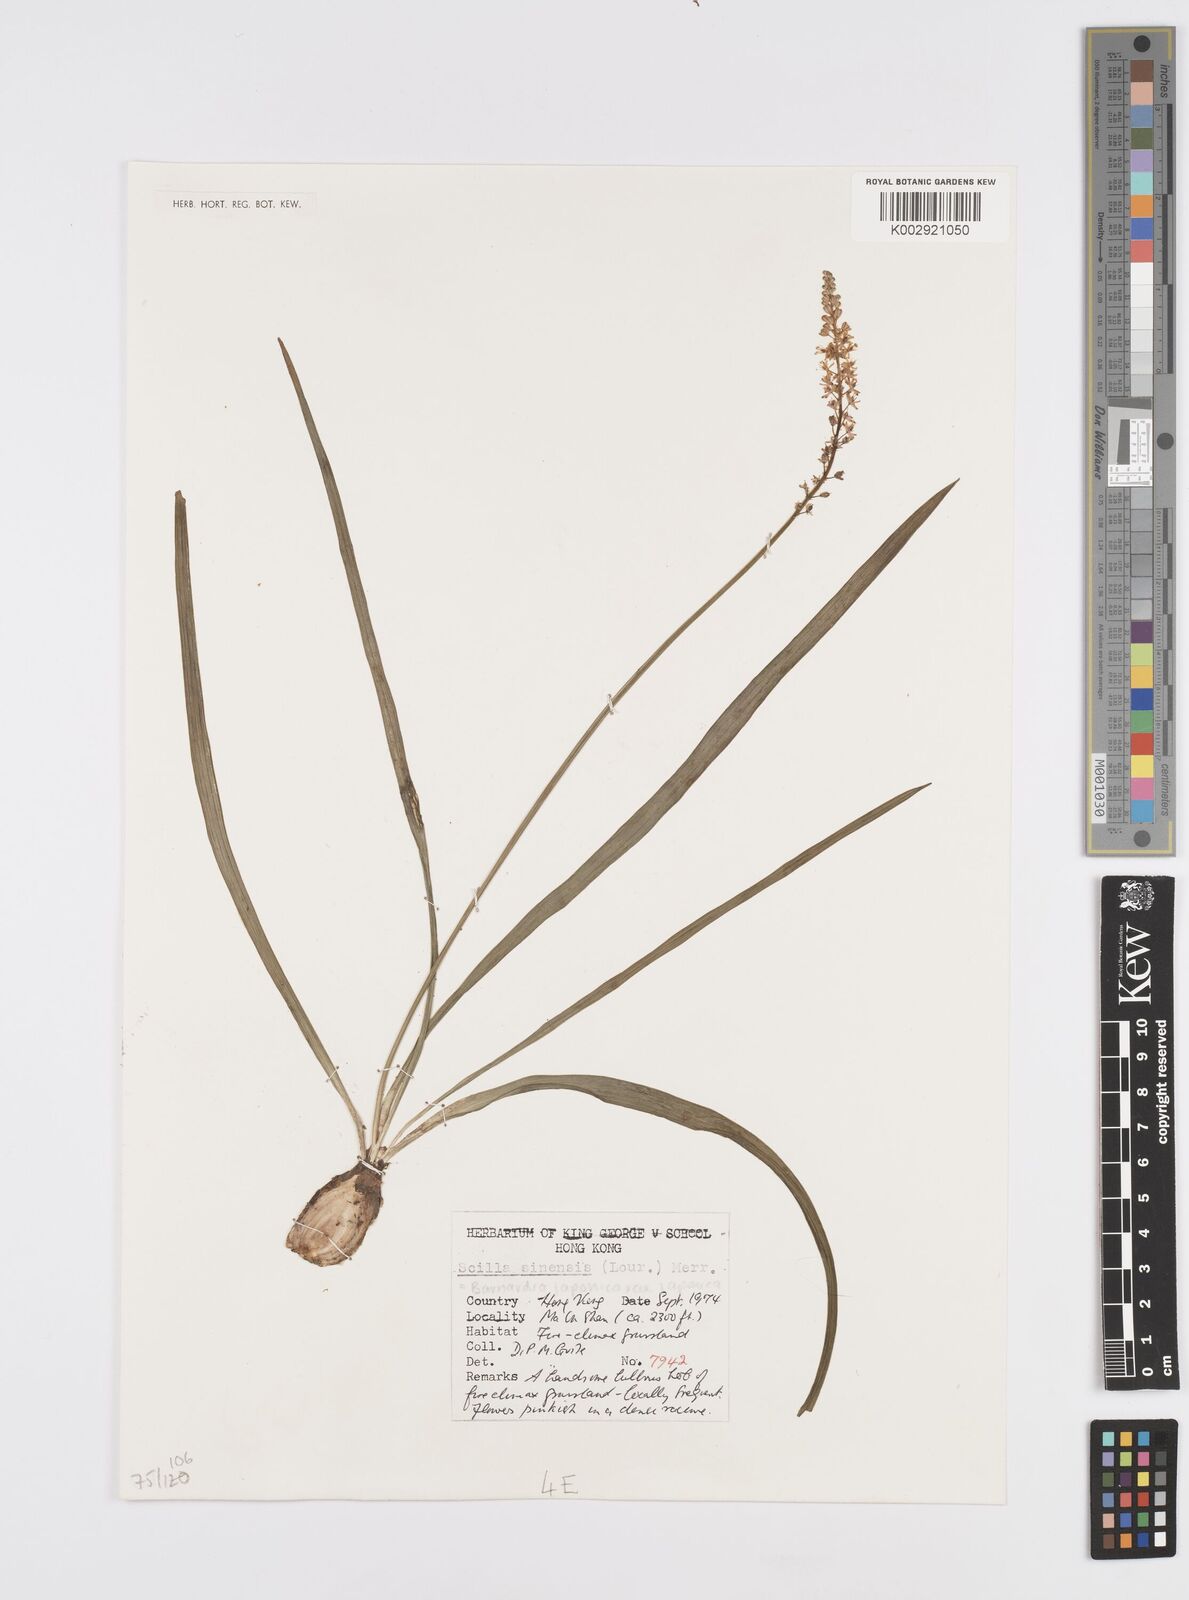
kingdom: Plantae
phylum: Tracheophyta
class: Liliopsida
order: Asparagales
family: Asparagaceae
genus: Barnardia
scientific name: Barnardia japonica
